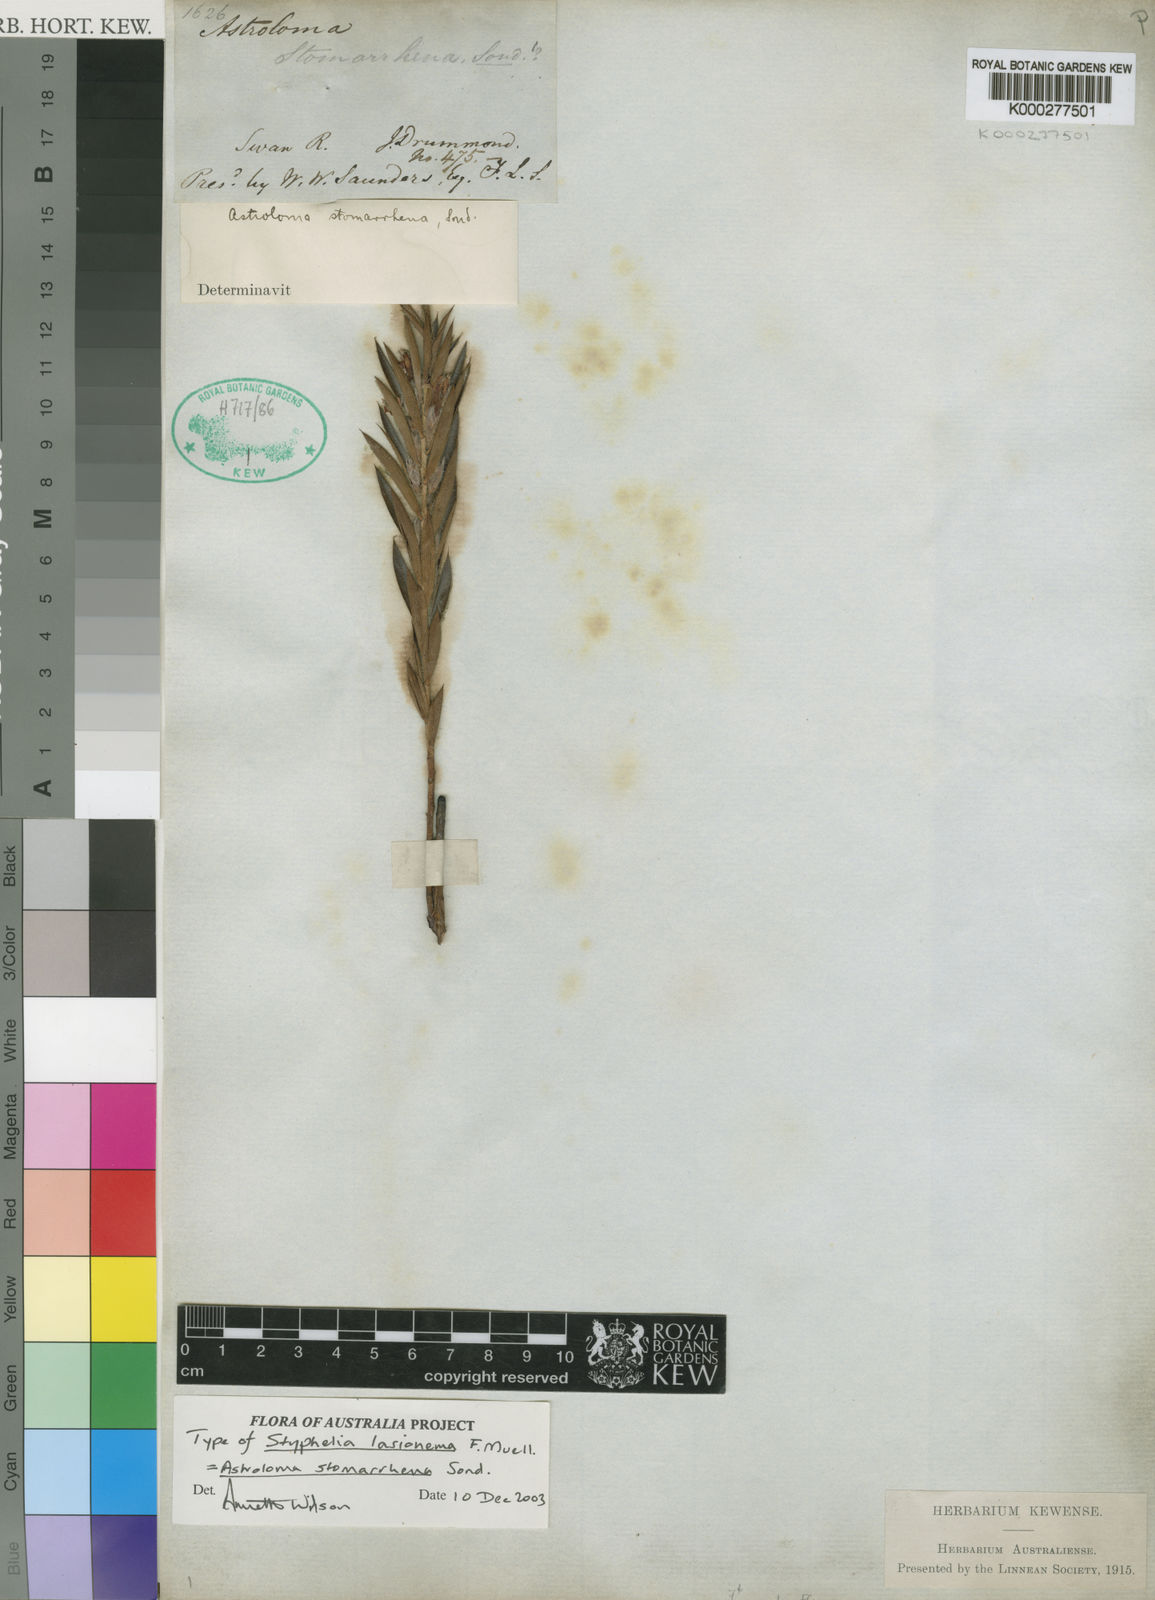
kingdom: Plantae
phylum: Tracheophyta
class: Magnoliopsida
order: Ericales
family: Ericaceae
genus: Styphelia
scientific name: Styphelia stomarrhena
